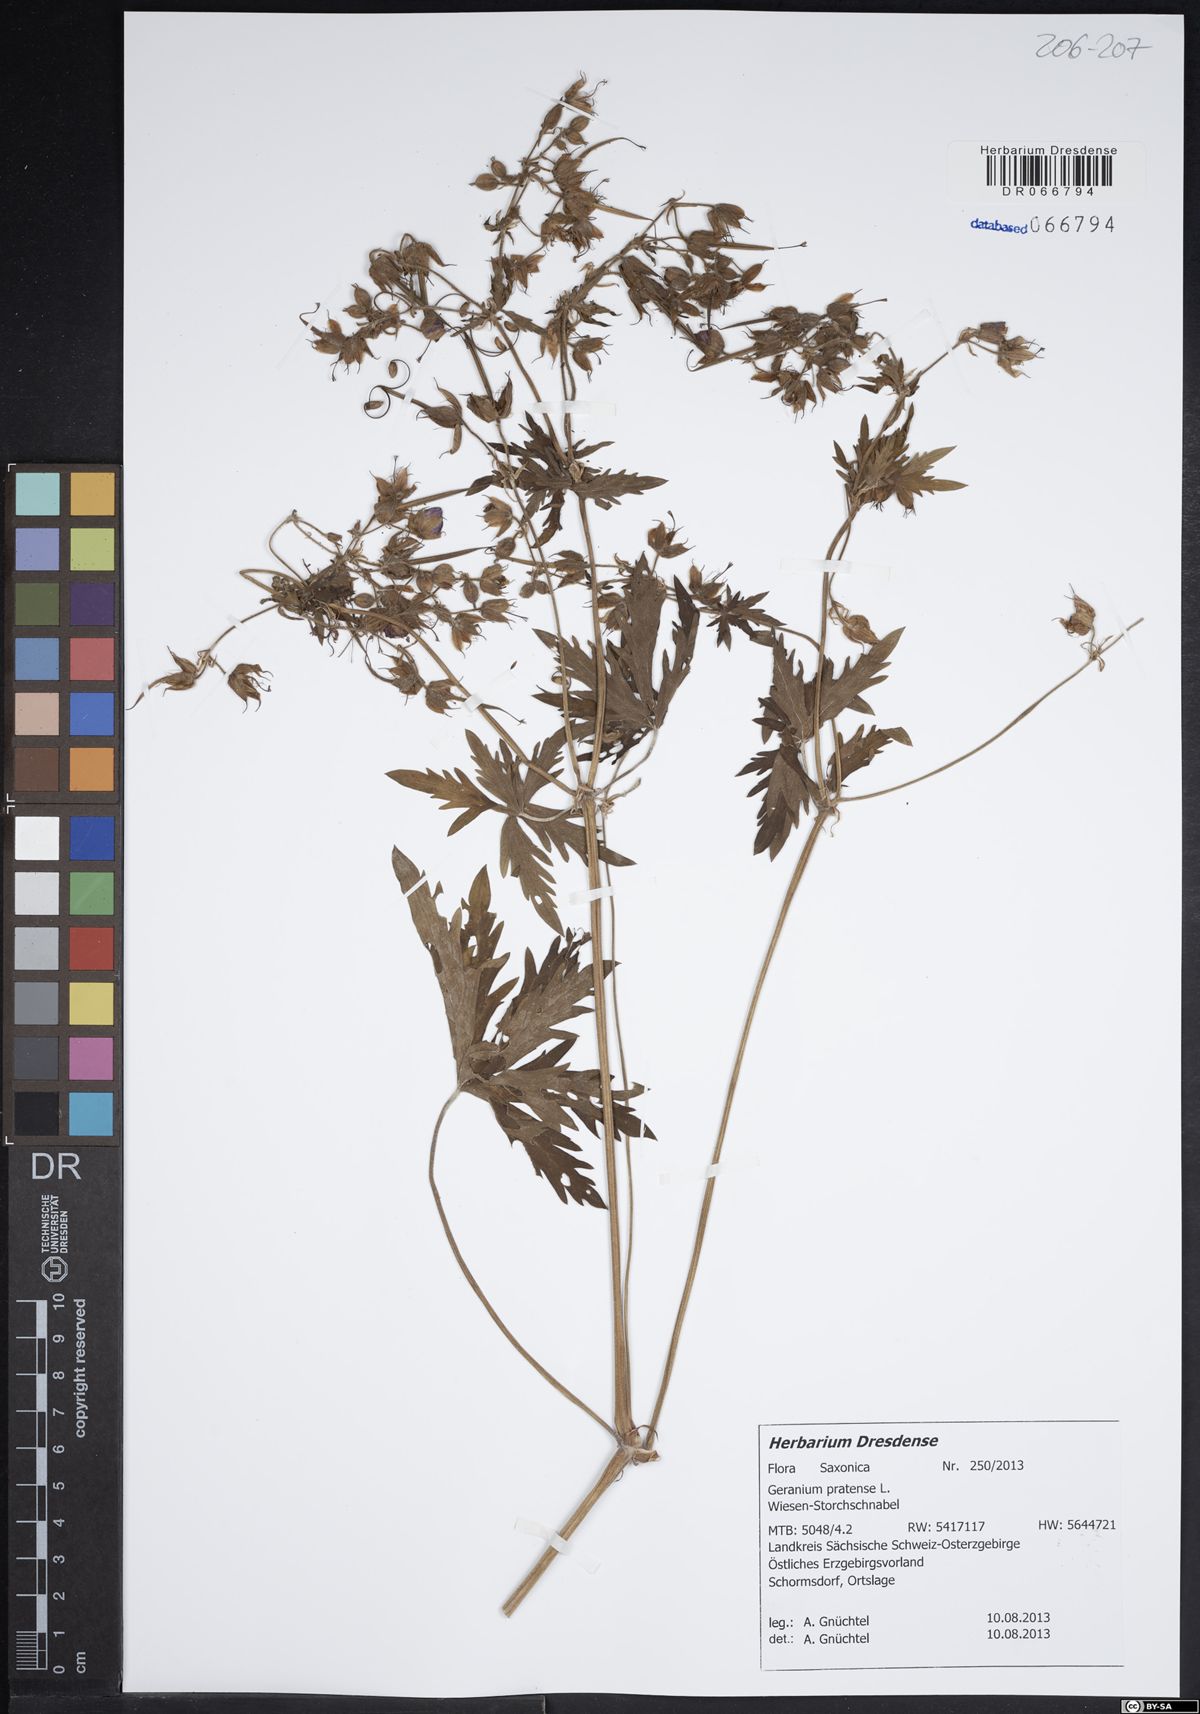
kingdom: Plantae
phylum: Tracheophyta
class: Magnoliopsida
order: Geraniales
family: Geraniaceae
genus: Geranium
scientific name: Geranium pratense
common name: Meadow crane's-bill
